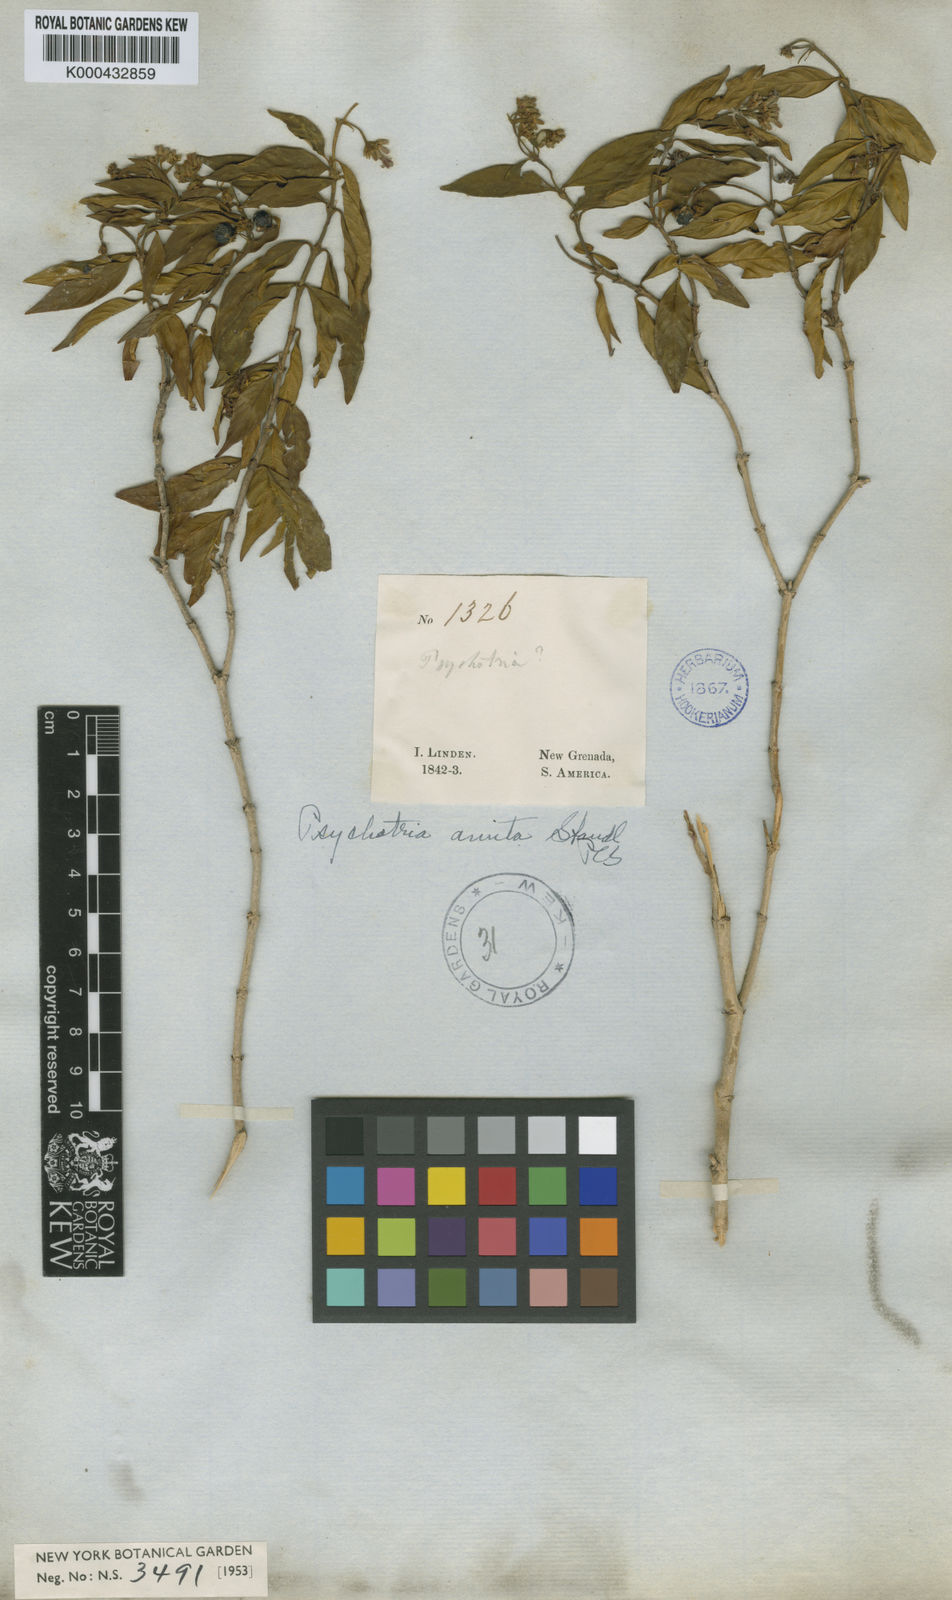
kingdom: Plantae
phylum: Tracheophyta
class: Magnoliopsida
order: Gentianales
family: Rubiaceae
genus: Palicourea
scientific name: Palicourea amita
